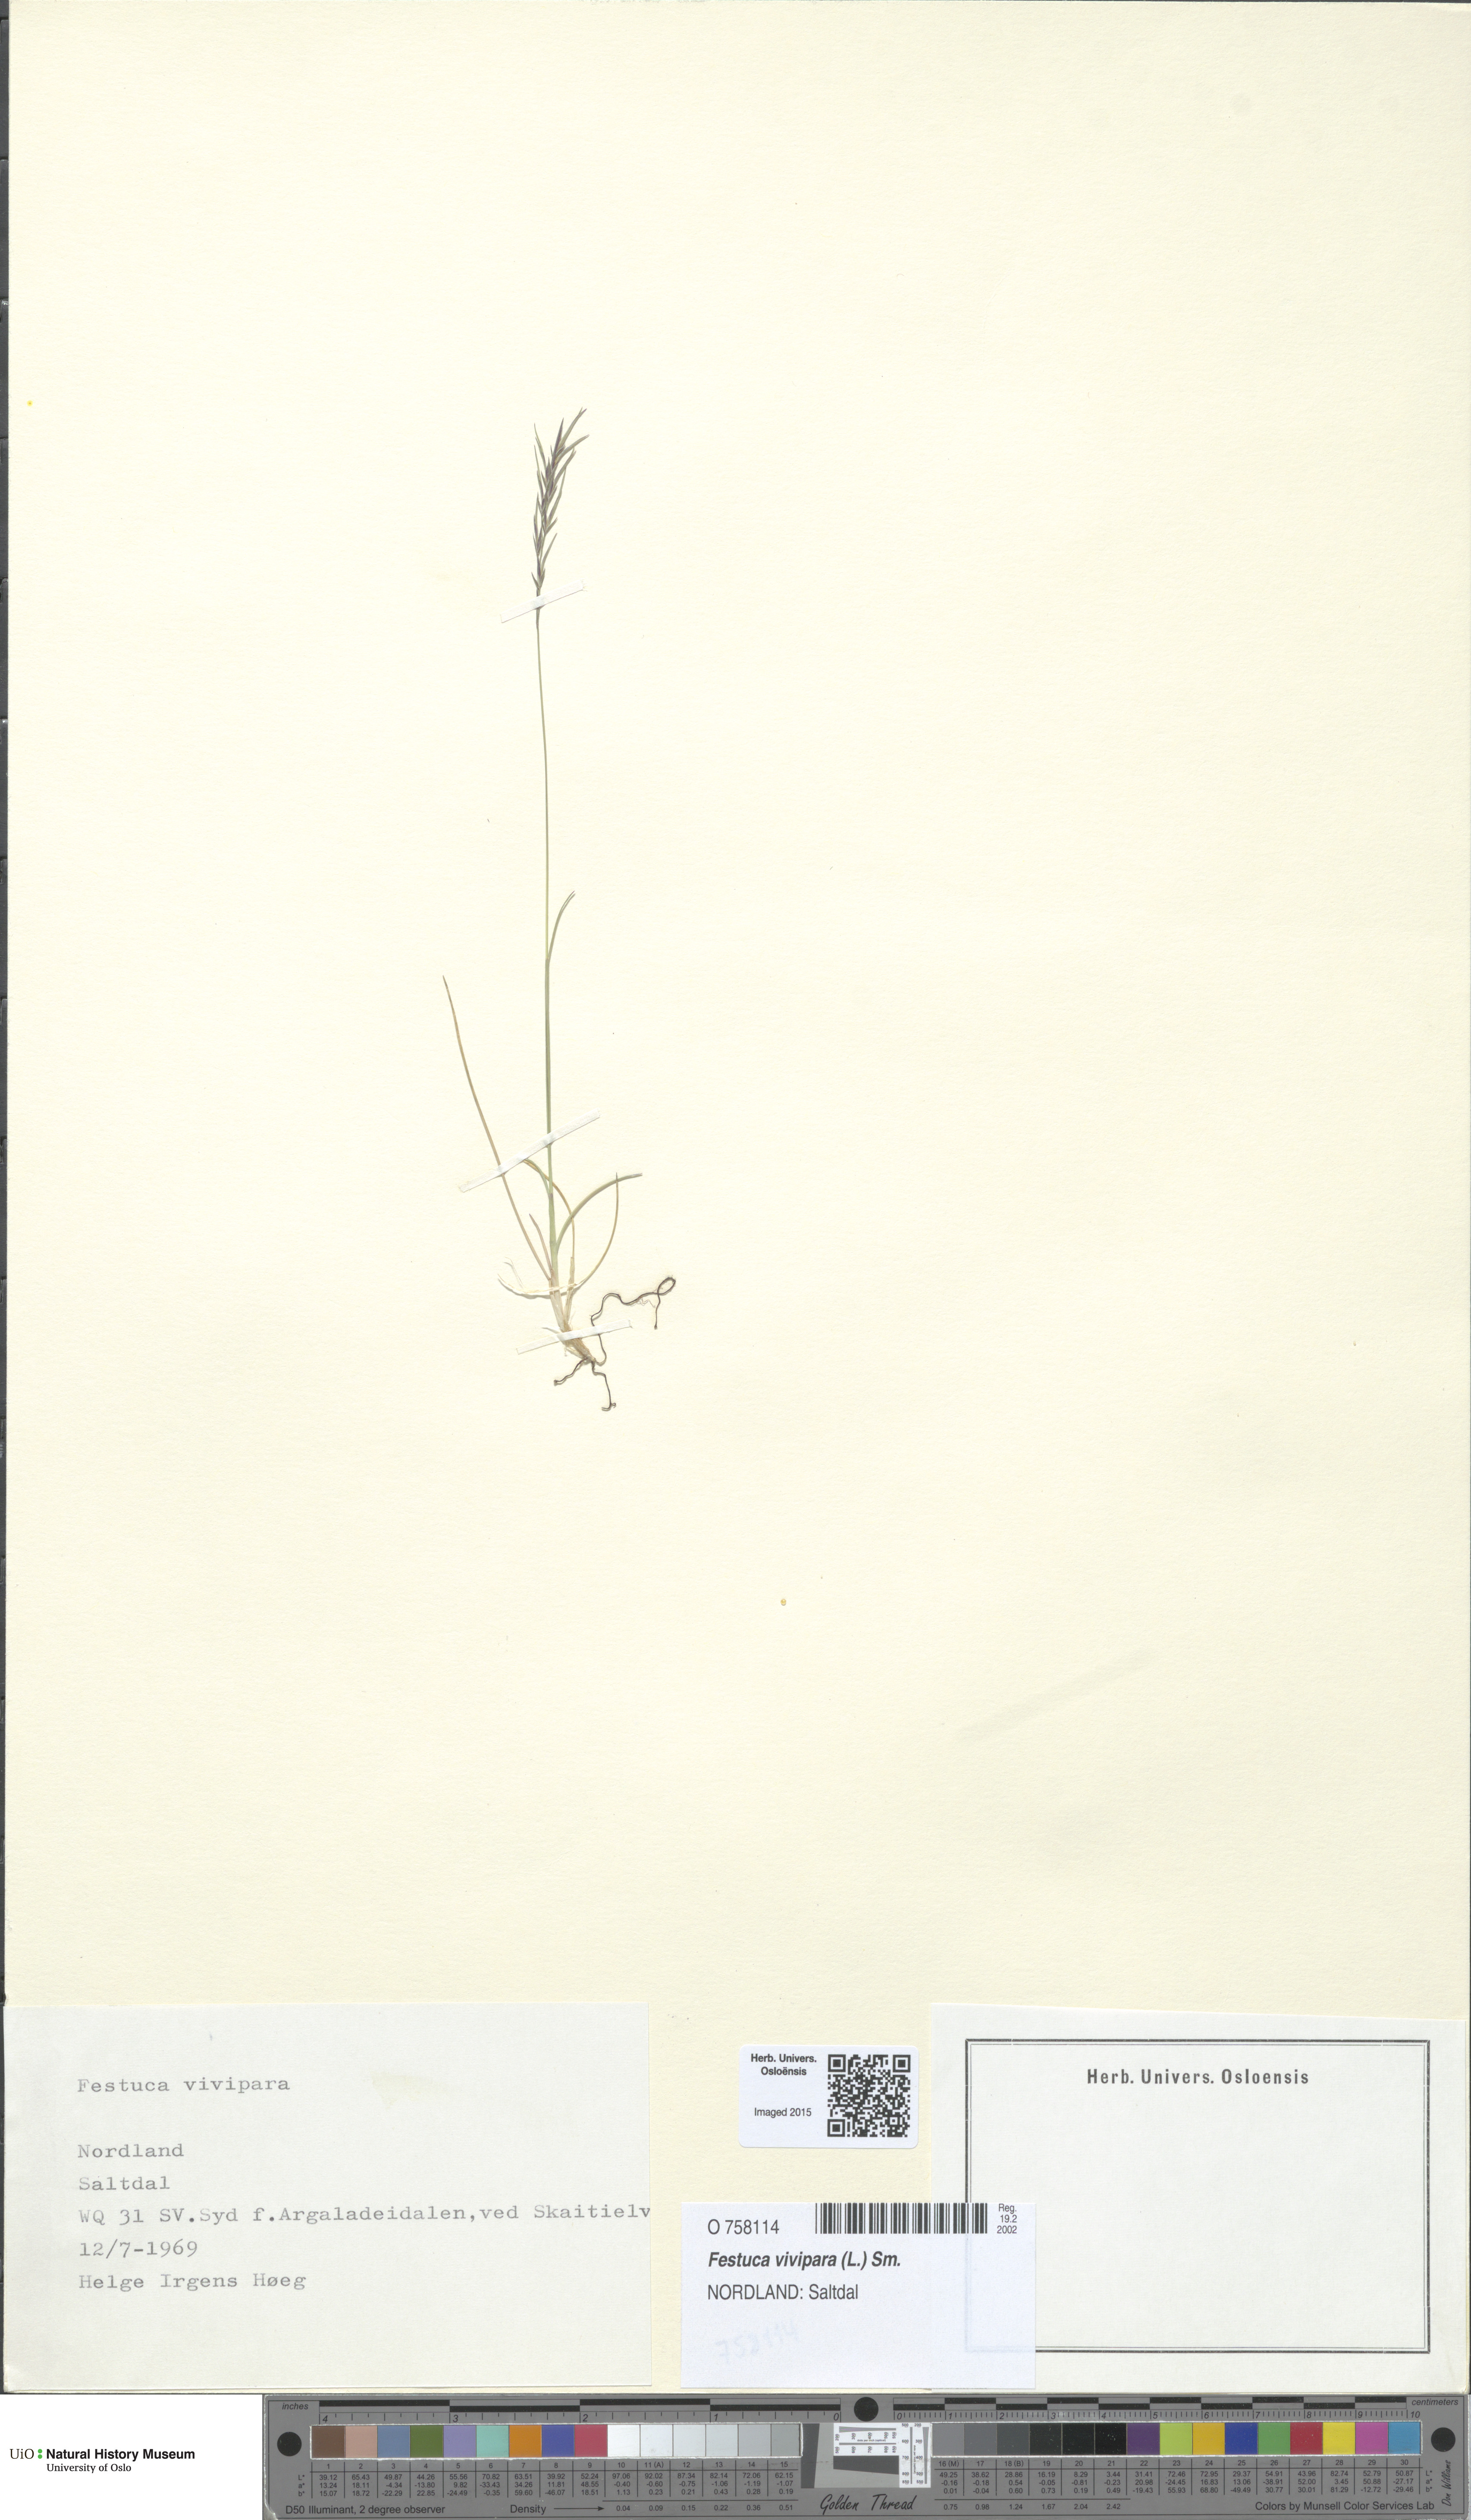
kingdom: Plantae
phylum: Tracheophyta
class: Liliopsida
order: Poales
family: Poaceae
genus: Festuca
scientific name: Festuca vivipara
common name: Viviparous sheep's-fescue
